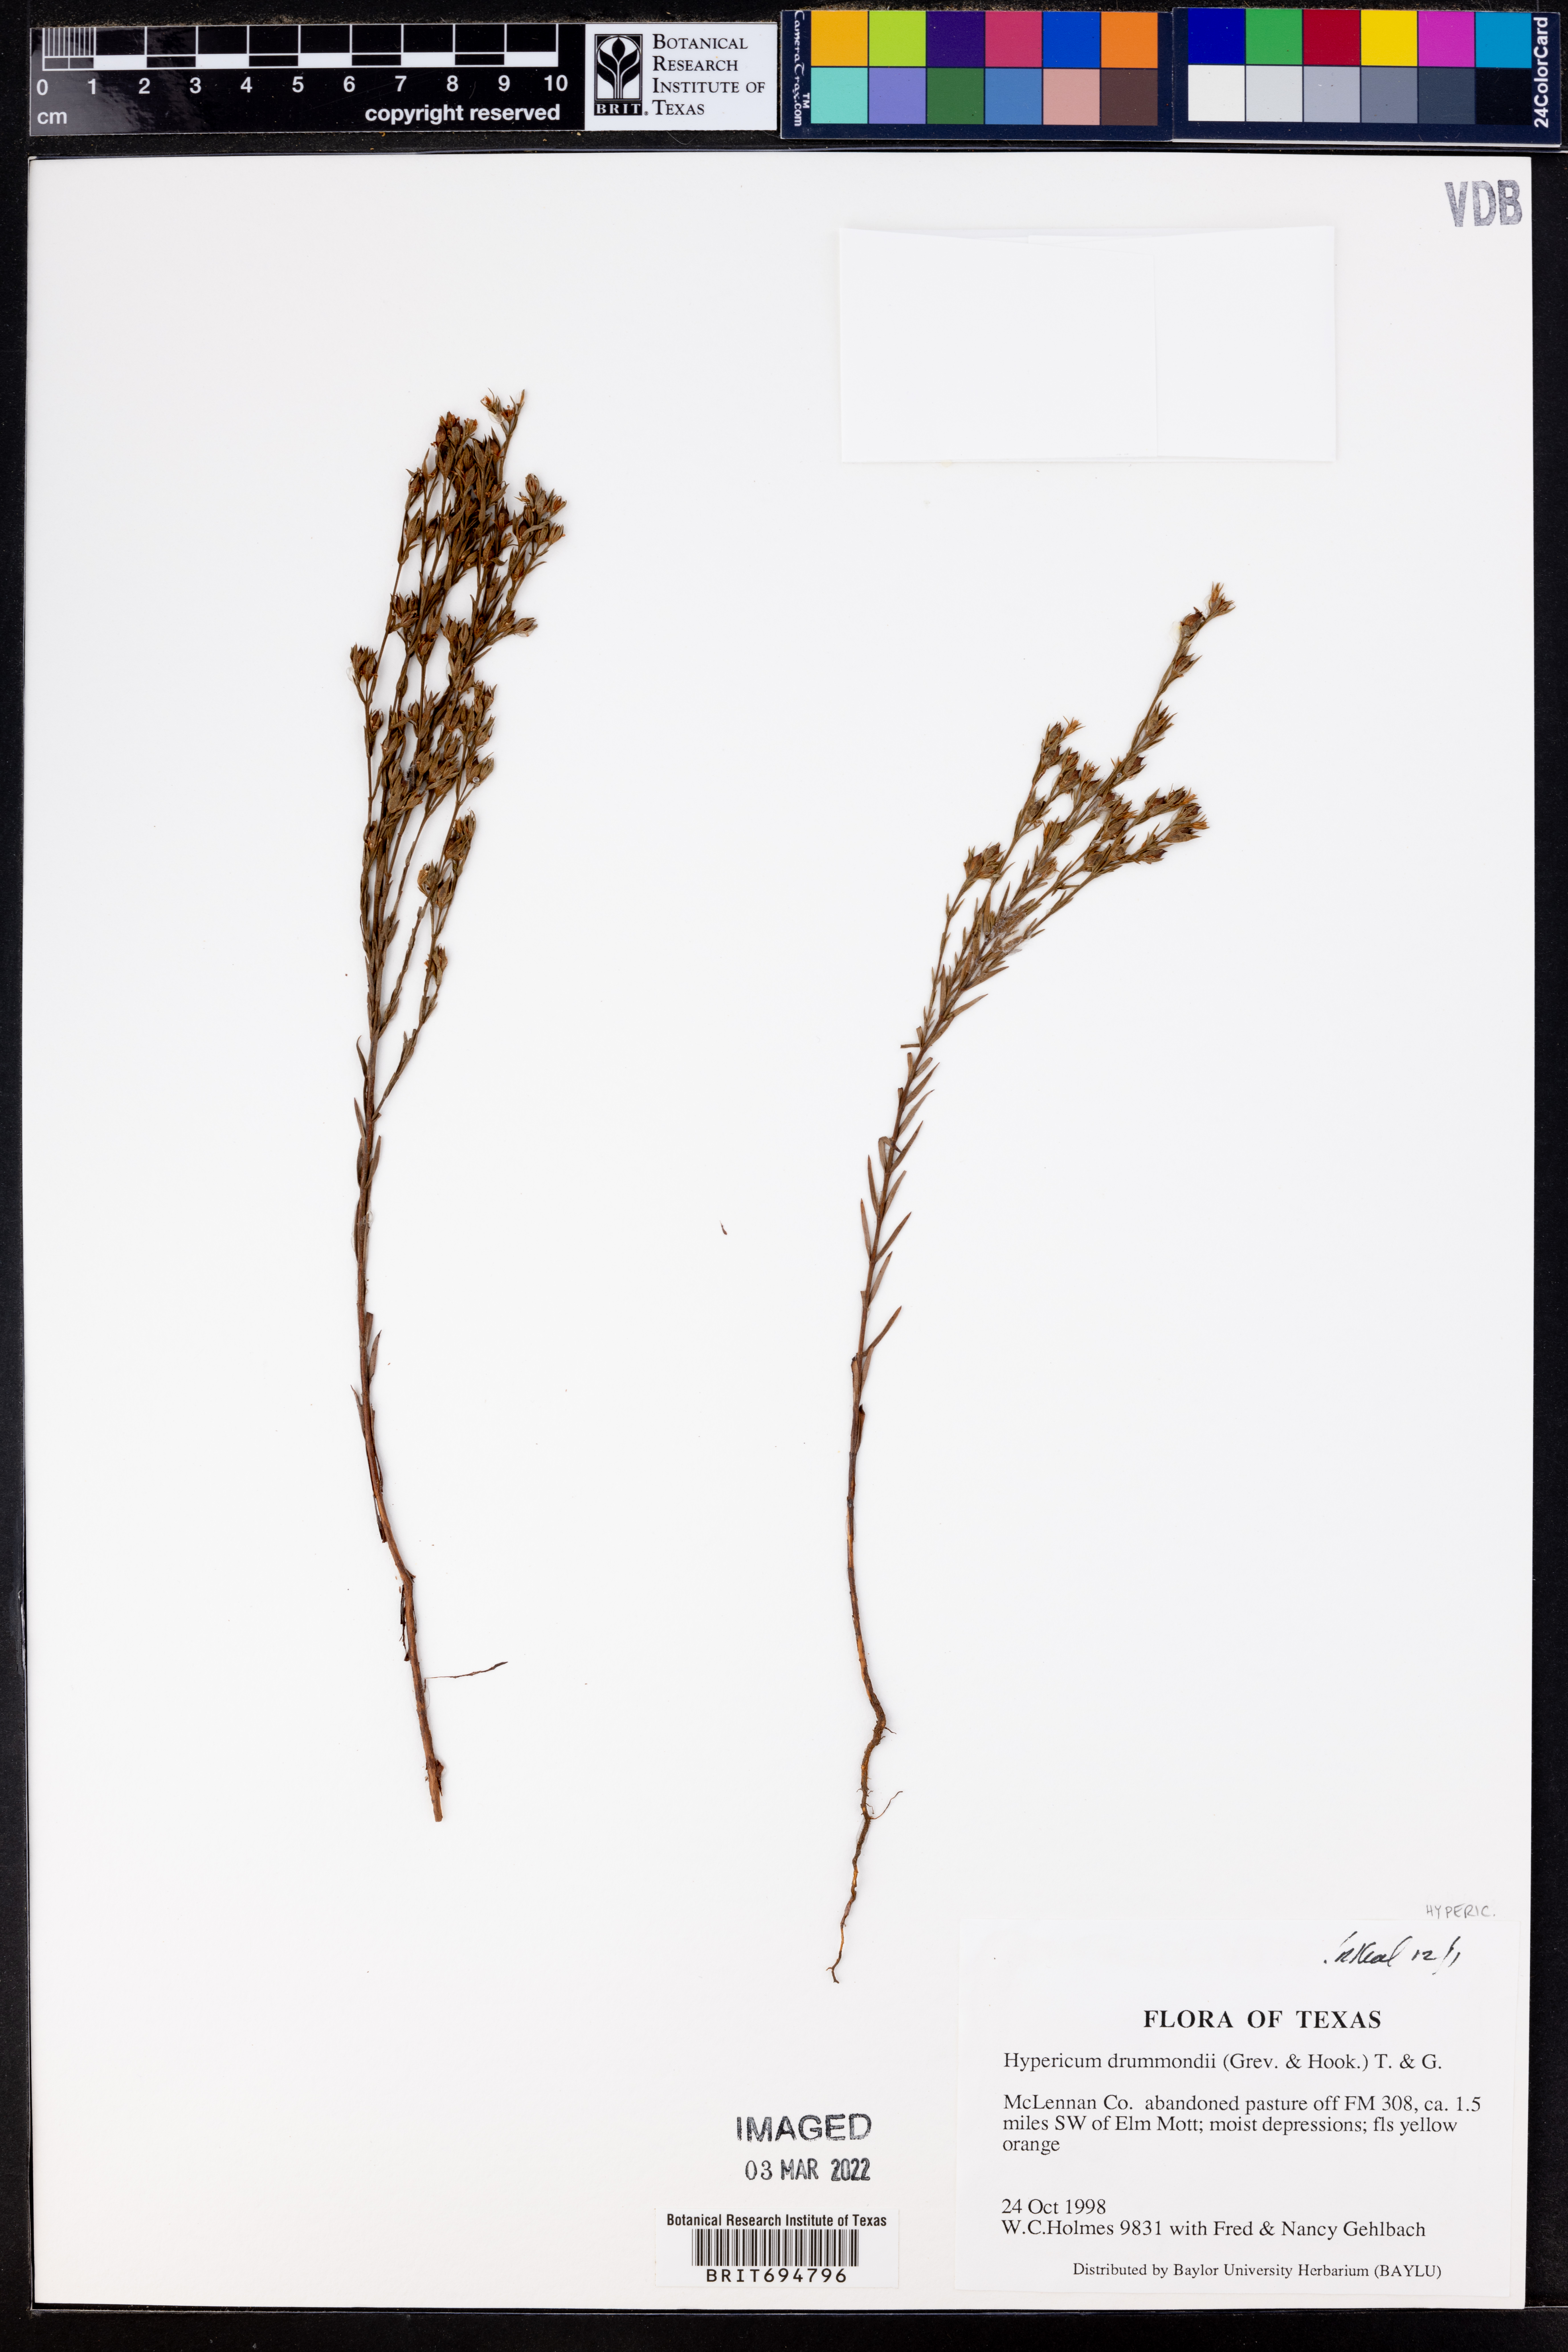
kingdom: Plantae
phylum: Tracheophyta
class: Magnoliopsida
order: Malpighiales
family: Hypericaceae
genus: Hypericum
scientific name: Hypericum drummondii
